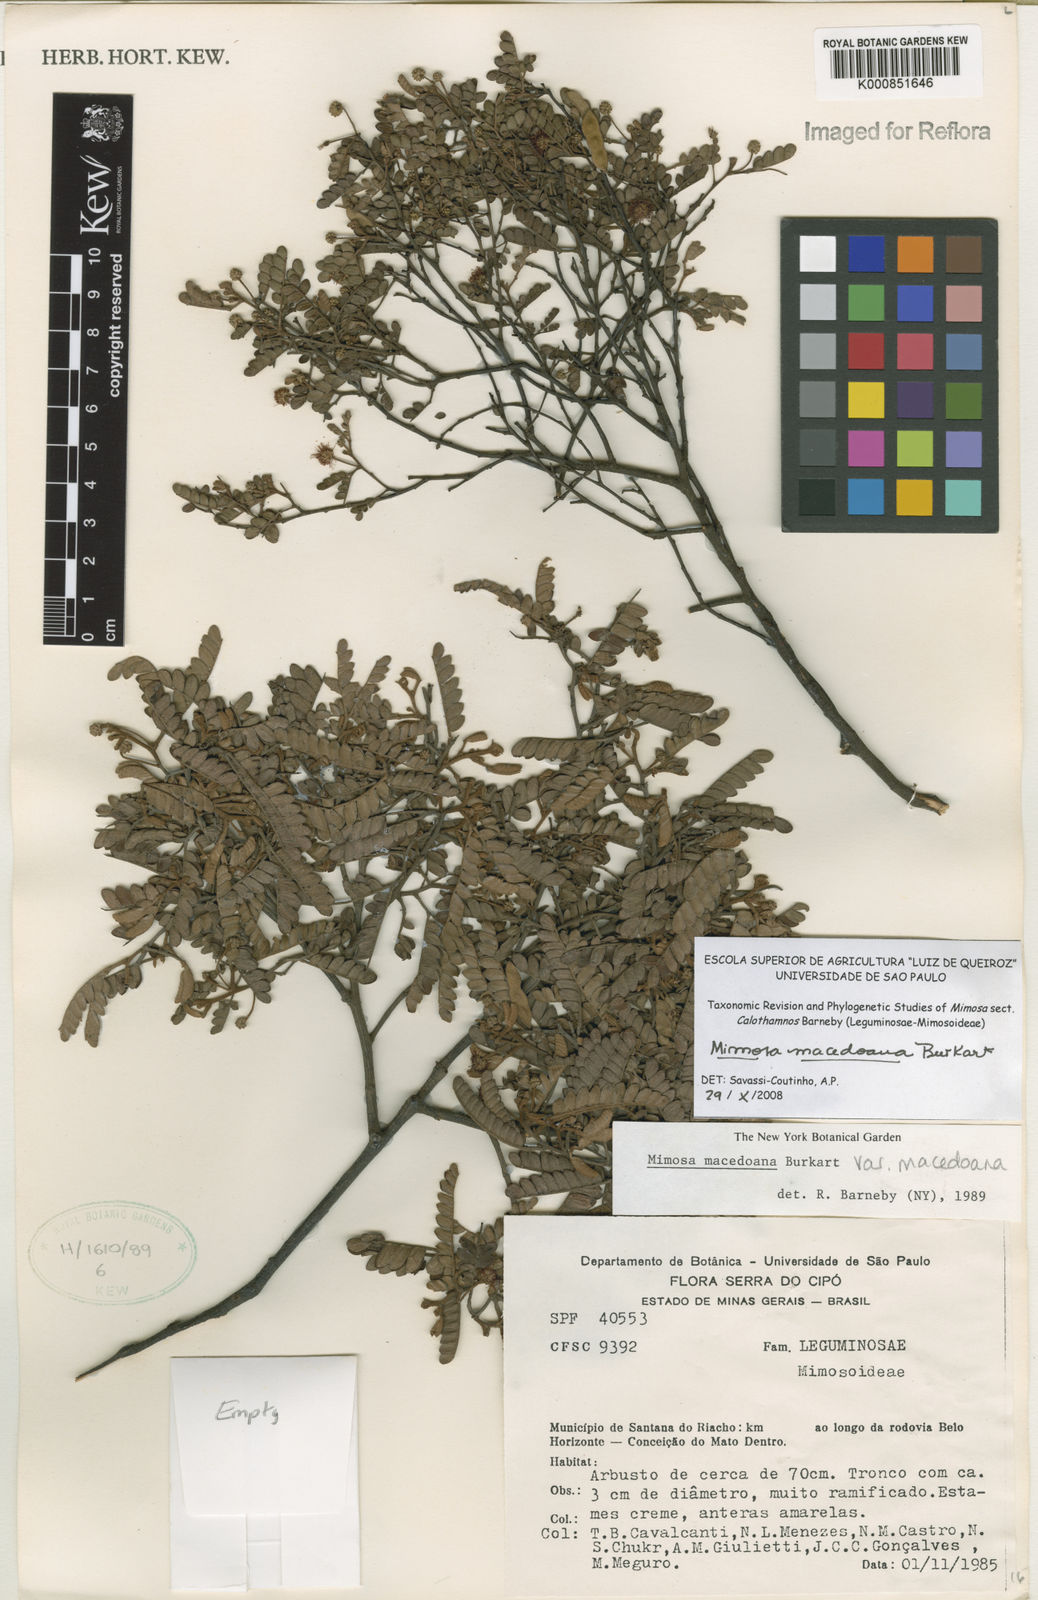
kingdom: Plantae
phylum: Tracheophyta
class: Magnoliopsida
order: Fabales
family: Fabaceae
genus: Mimosa
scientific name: Mimosa macedoana
